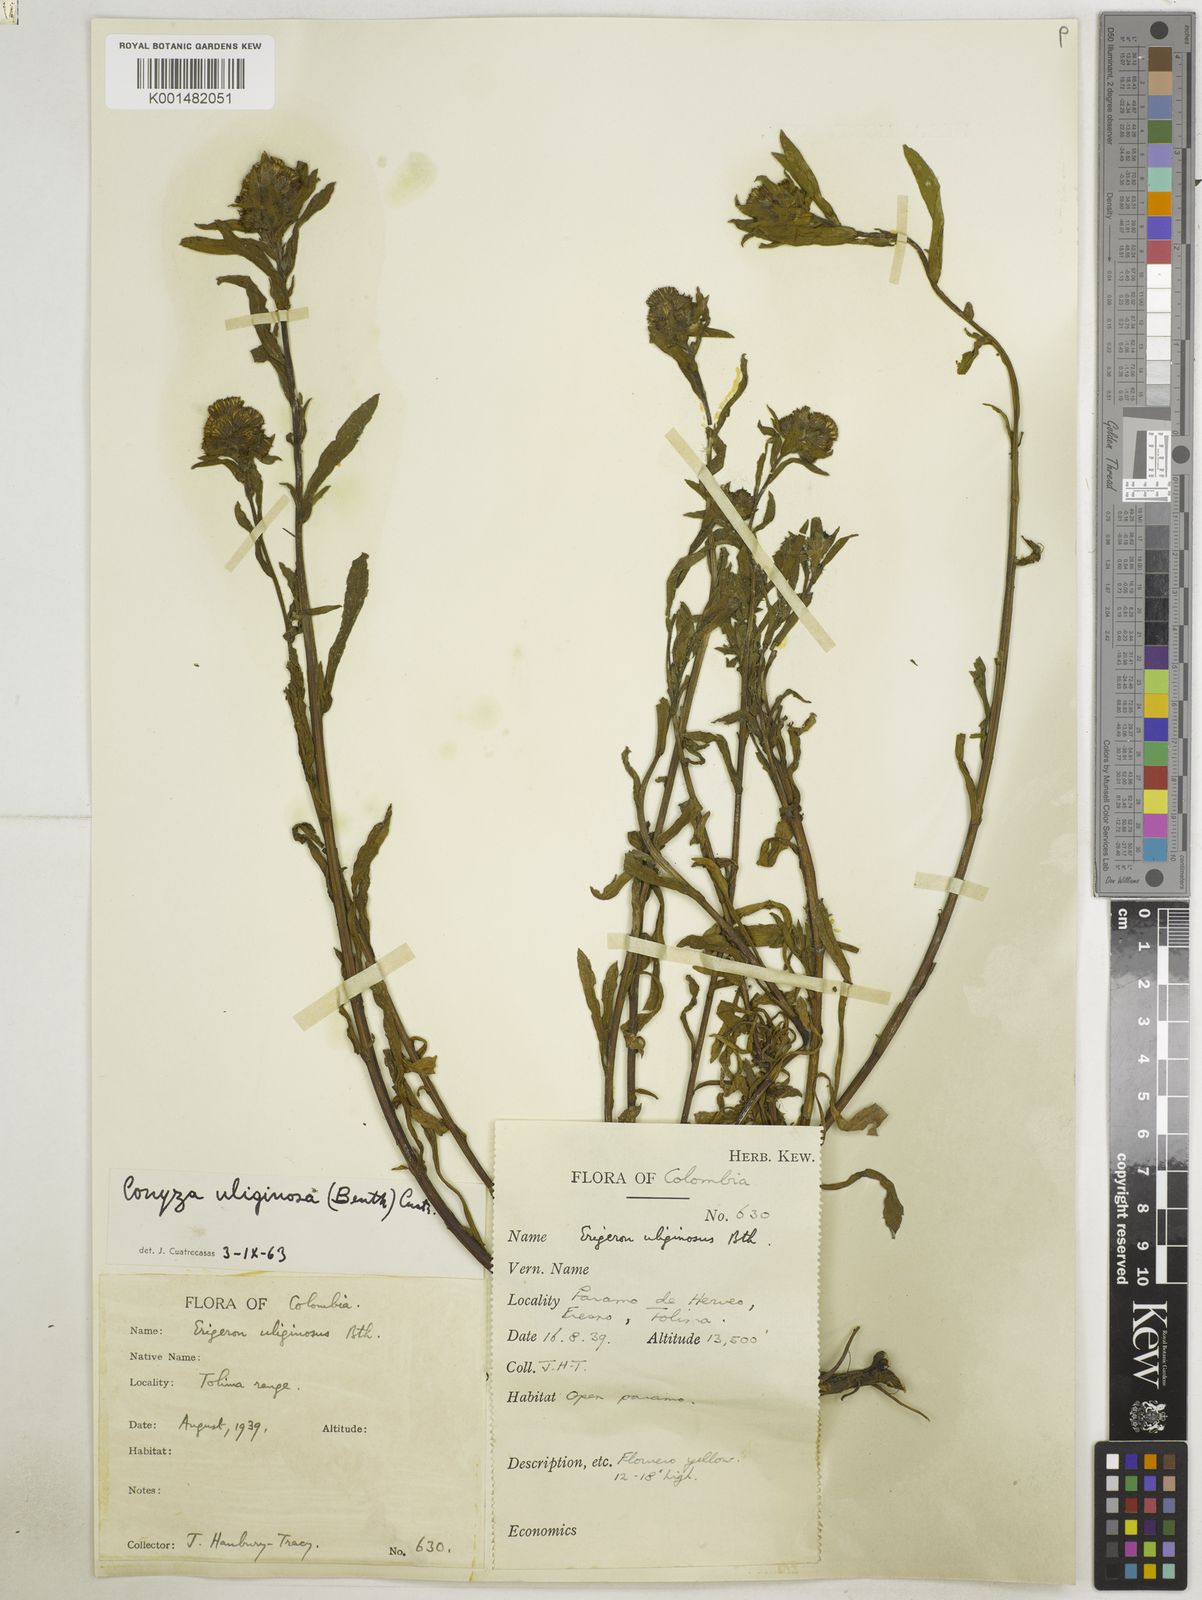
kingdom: Plantae
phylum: Tracheophyta
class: Magnoliopsida
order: Asterales
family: Asteraceae
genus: Erigeron
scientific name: Erigeron uliginosus
